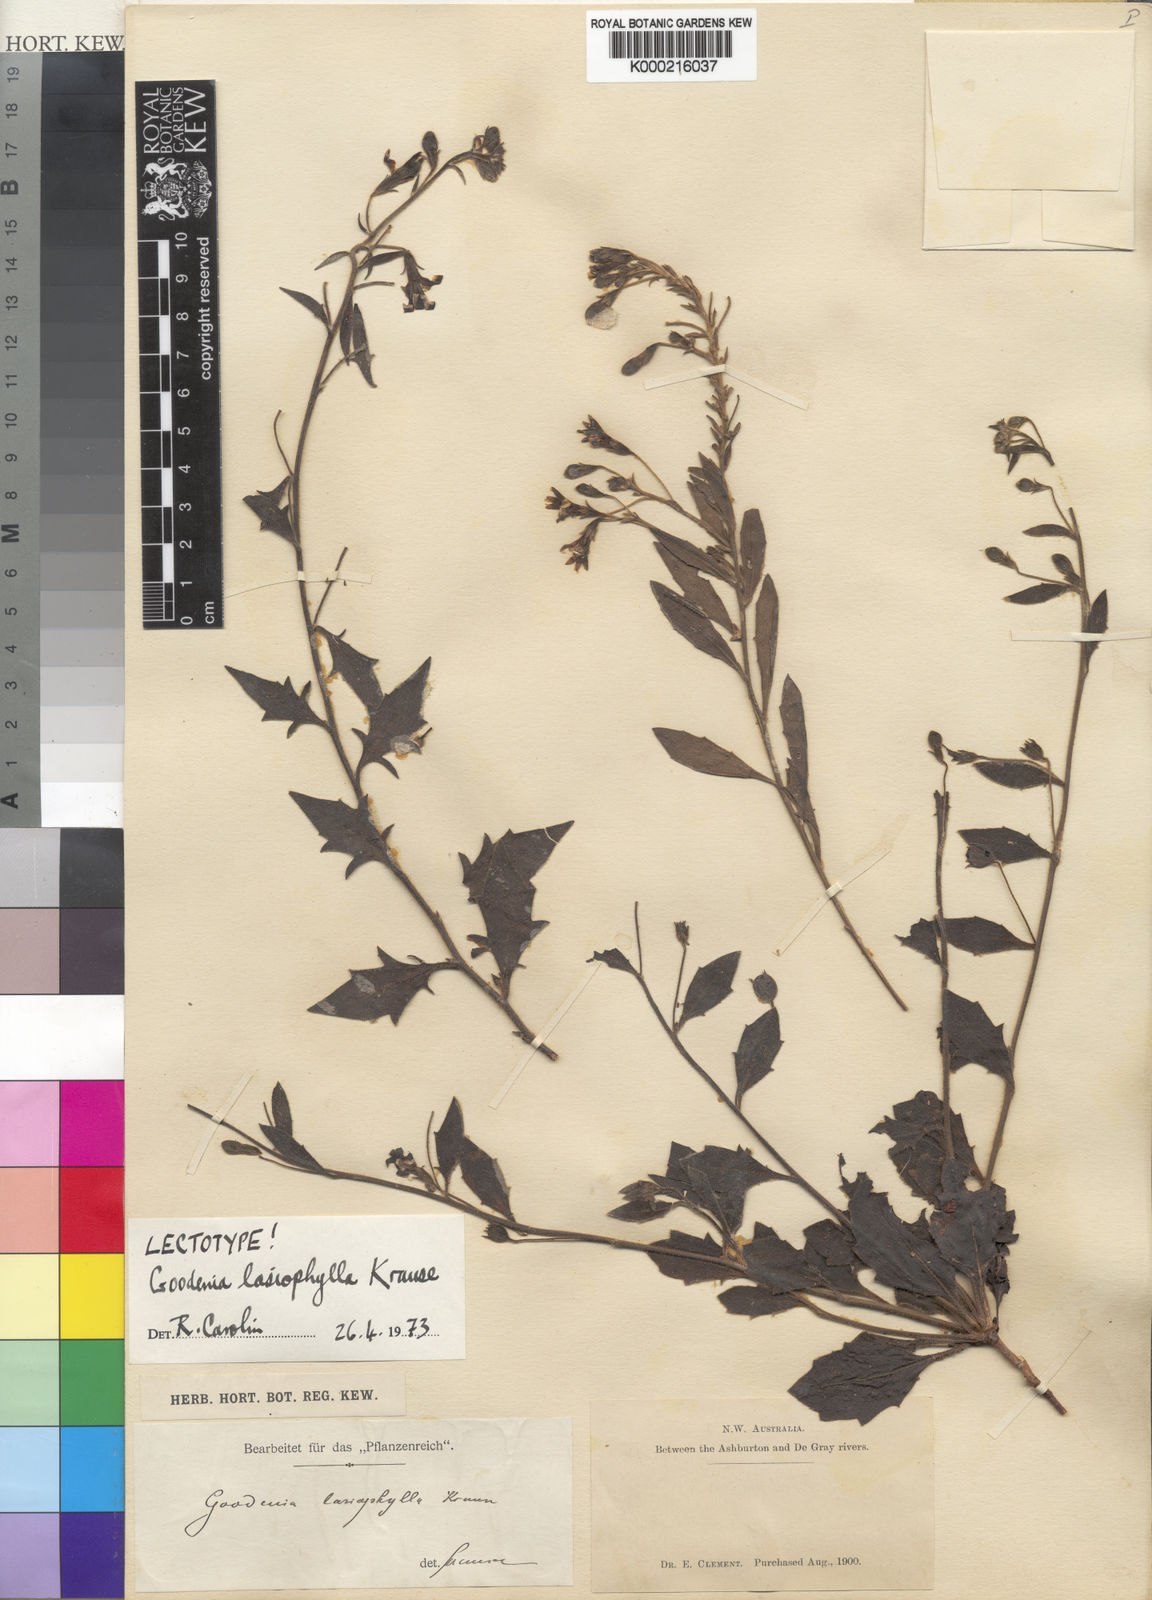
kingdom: Plantae
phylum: Tracheophyta
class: Magnoliopsida
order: Asterales
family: Goodeniaceae
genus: Goodenia
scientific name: Goodenia
